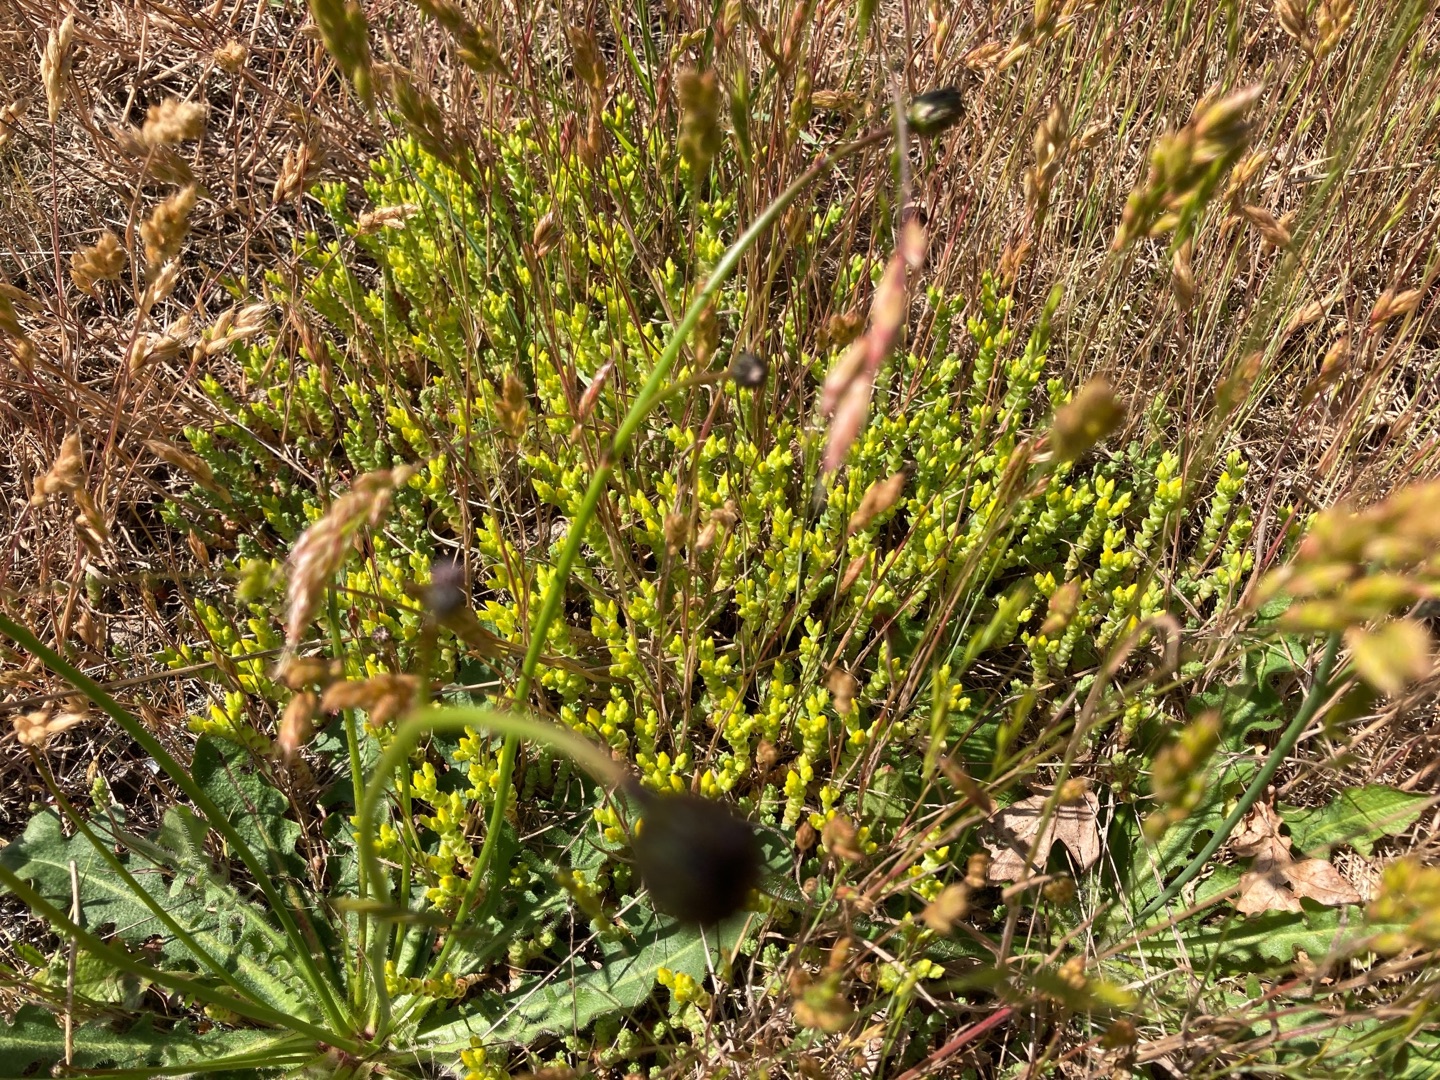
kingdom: Plantae
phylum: Tracheophyta
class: Magnoliopsida
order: Saxifragales
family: Crassulaceae
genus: Sedum
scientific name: Sedum acre
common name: Bidende stenurt
